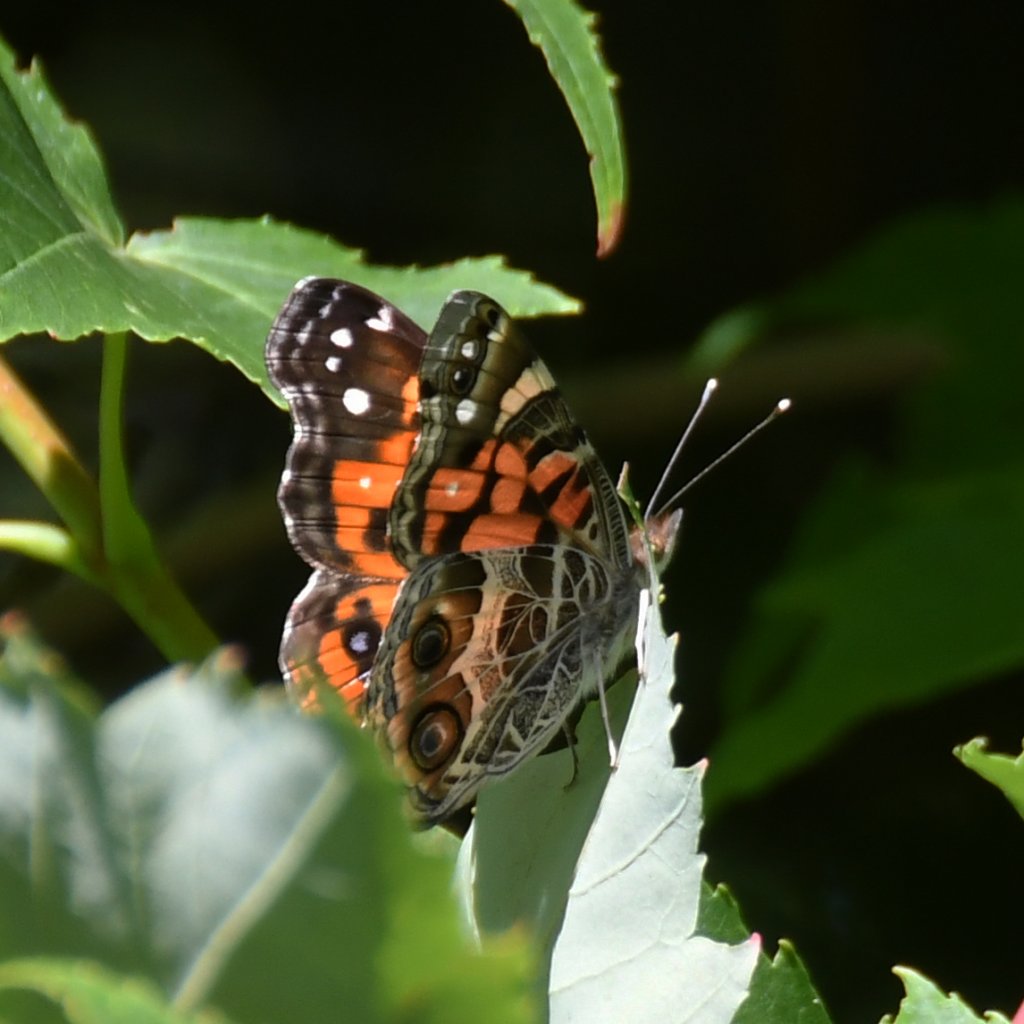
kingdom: Animalia
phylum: Arthropoda
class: Insecta
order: Lepidoptera
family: Nymphalidae
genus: Vanessa
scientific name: Vanessa virginiensis
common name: American Lady
